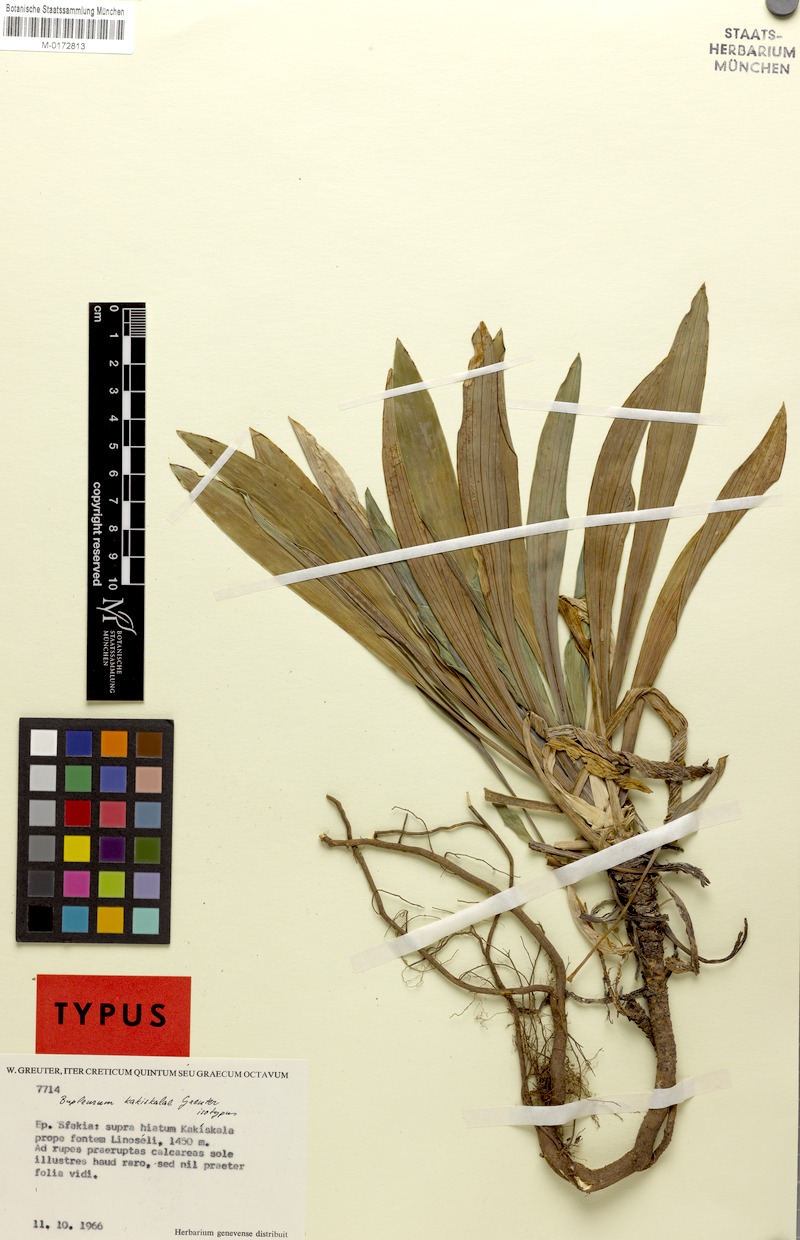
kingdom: Plantae
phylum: Tracheophyta
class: Magnoliopsida
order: Apiales
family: Apiaceae
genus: Bupleurum
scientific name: Bupleurum kakiskalae
